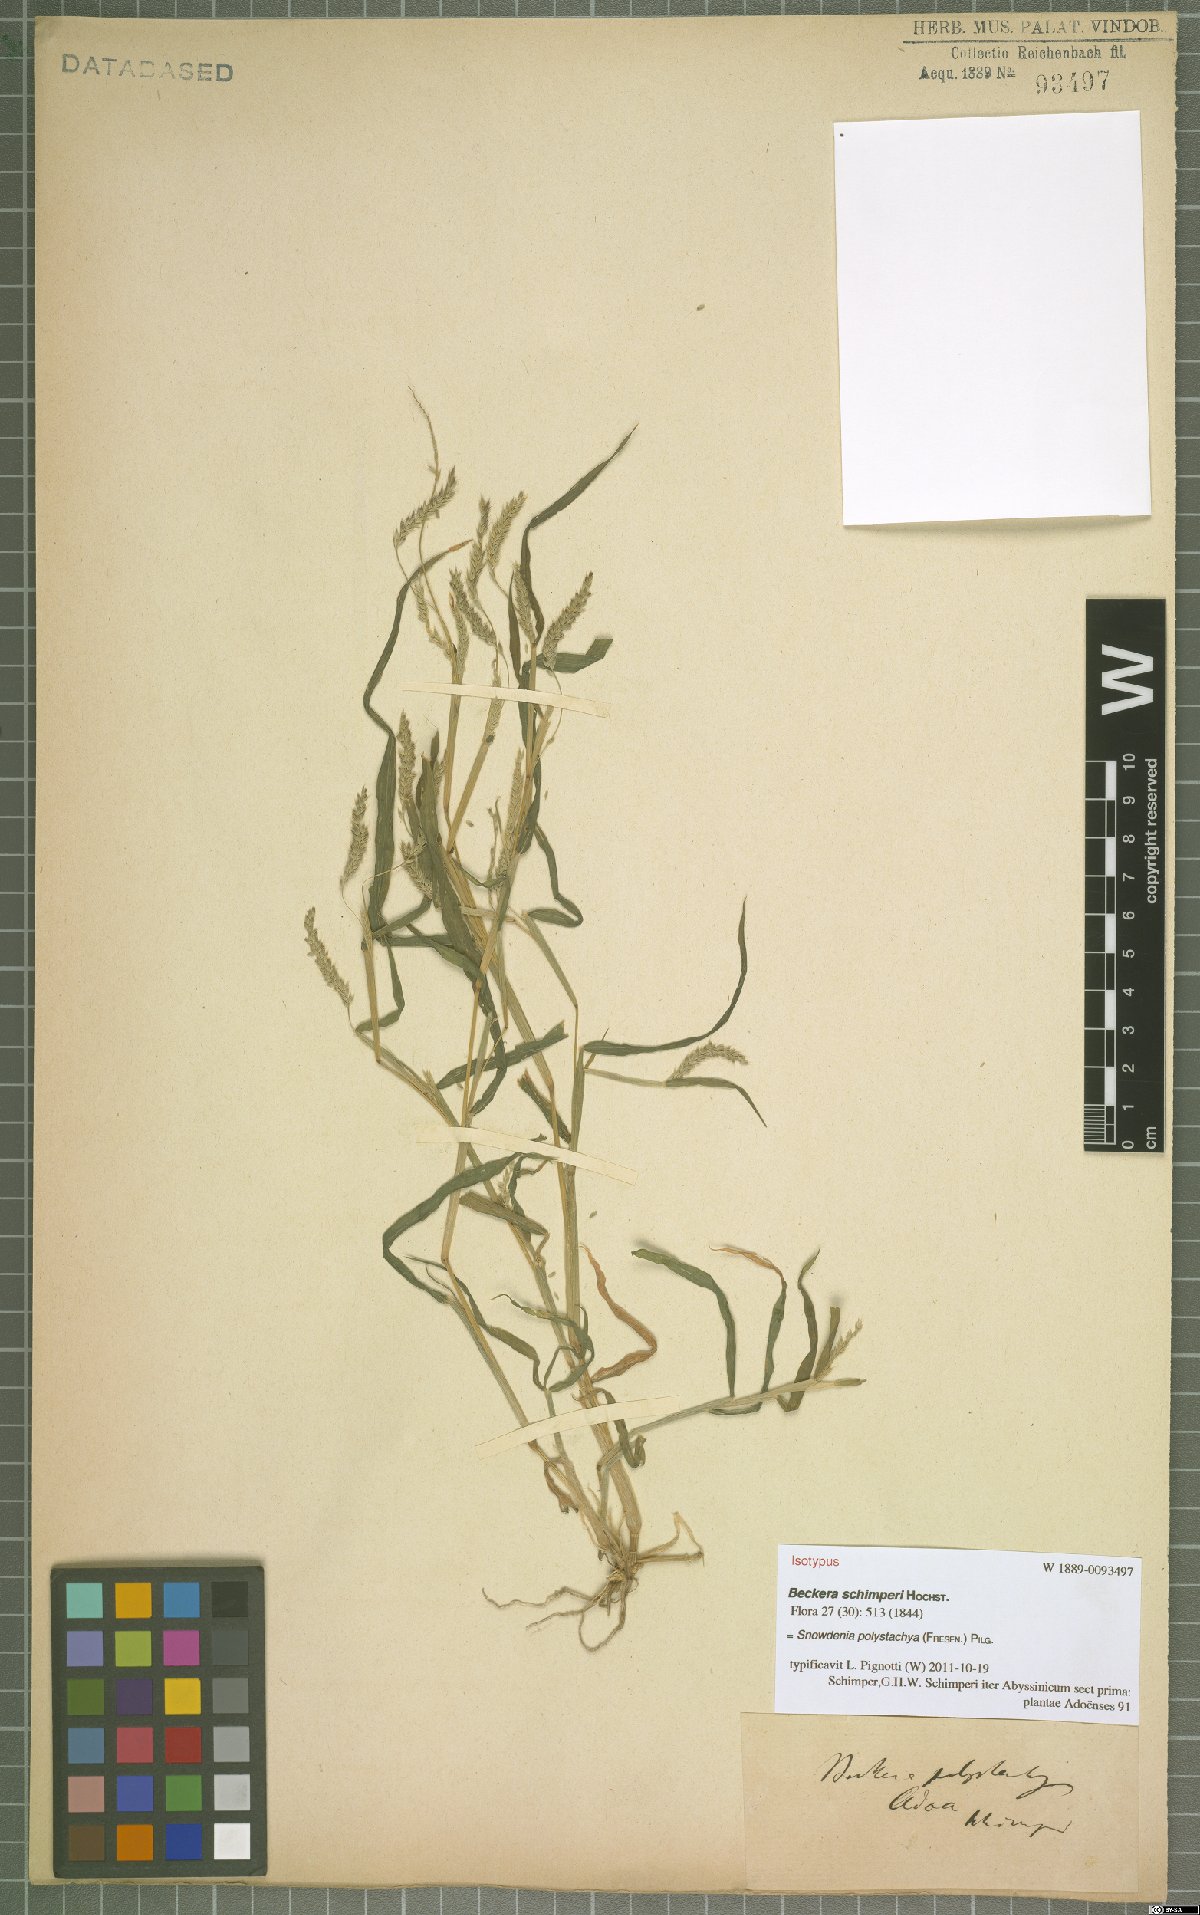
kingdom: Plantae
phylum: Tracheophyta
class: Liliopsida
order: Poales
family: Poaceae
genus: Snowdenia
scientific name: Snowdenia polystachya
